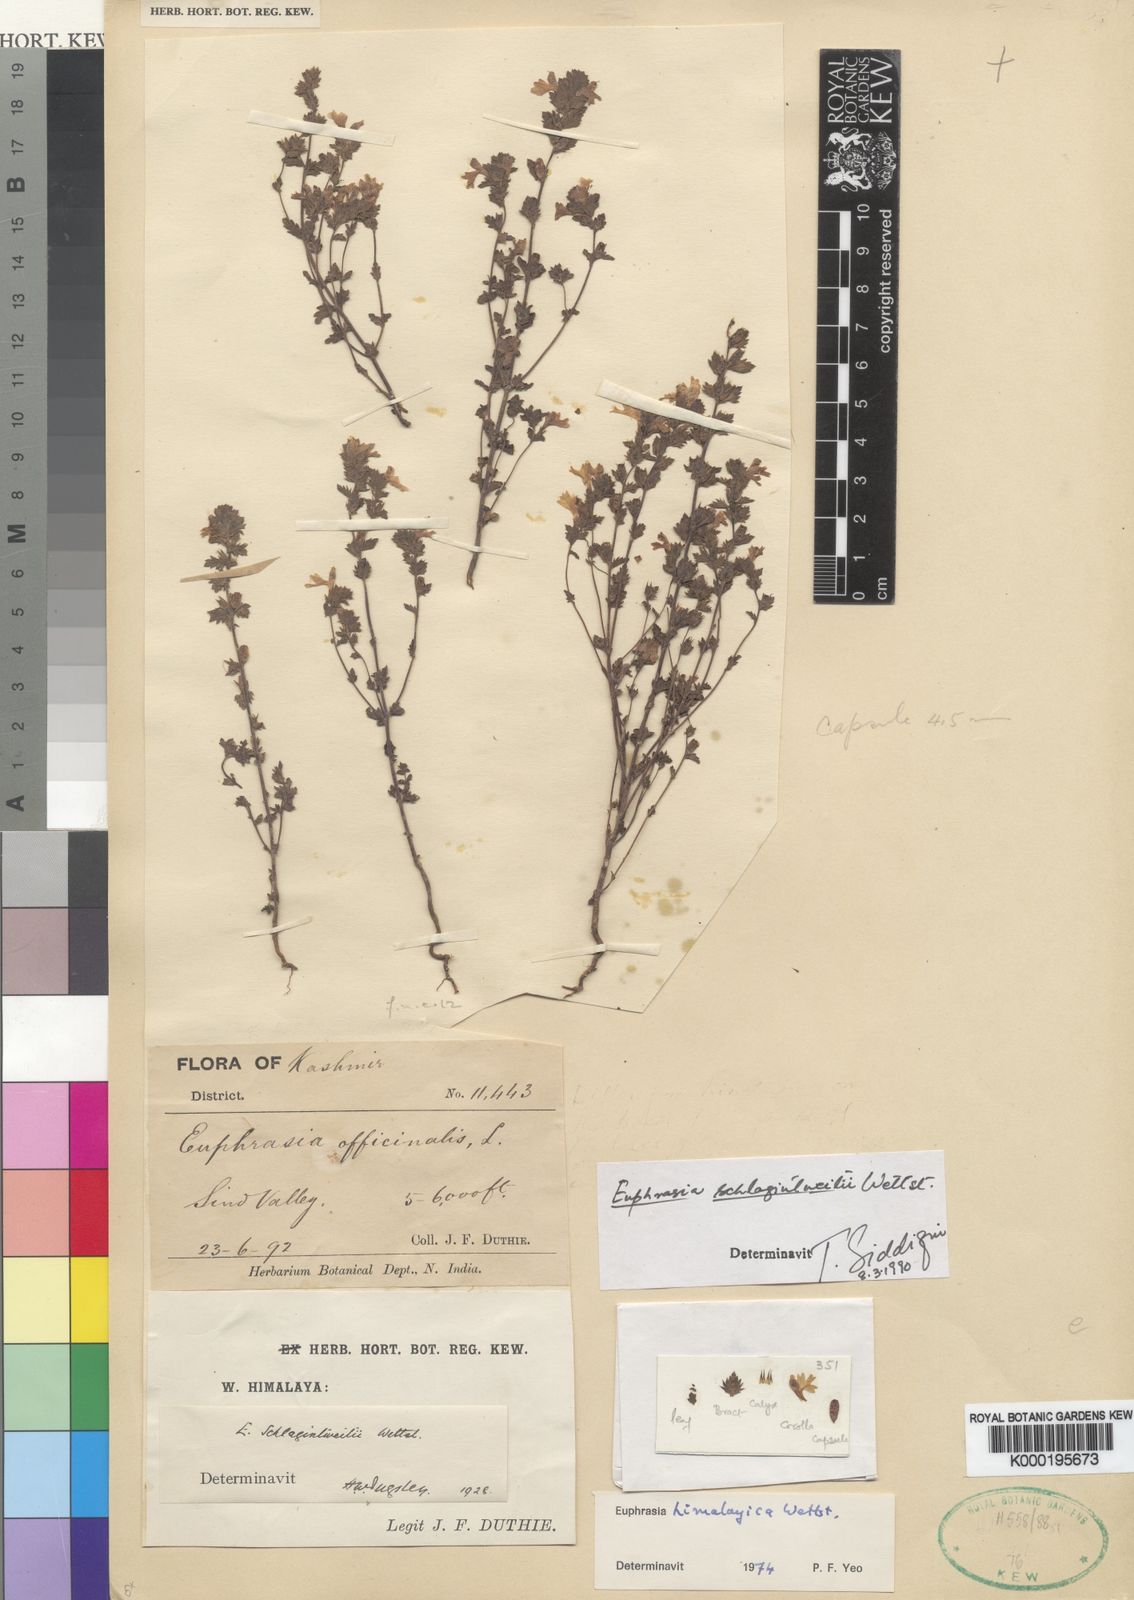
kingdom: Plantae
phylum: Tracheophyta
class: Magnoliopsida
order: Lamiales
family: Orobanchaceae
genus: Euphrasia
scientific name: Euphrasia schlagintweitii
